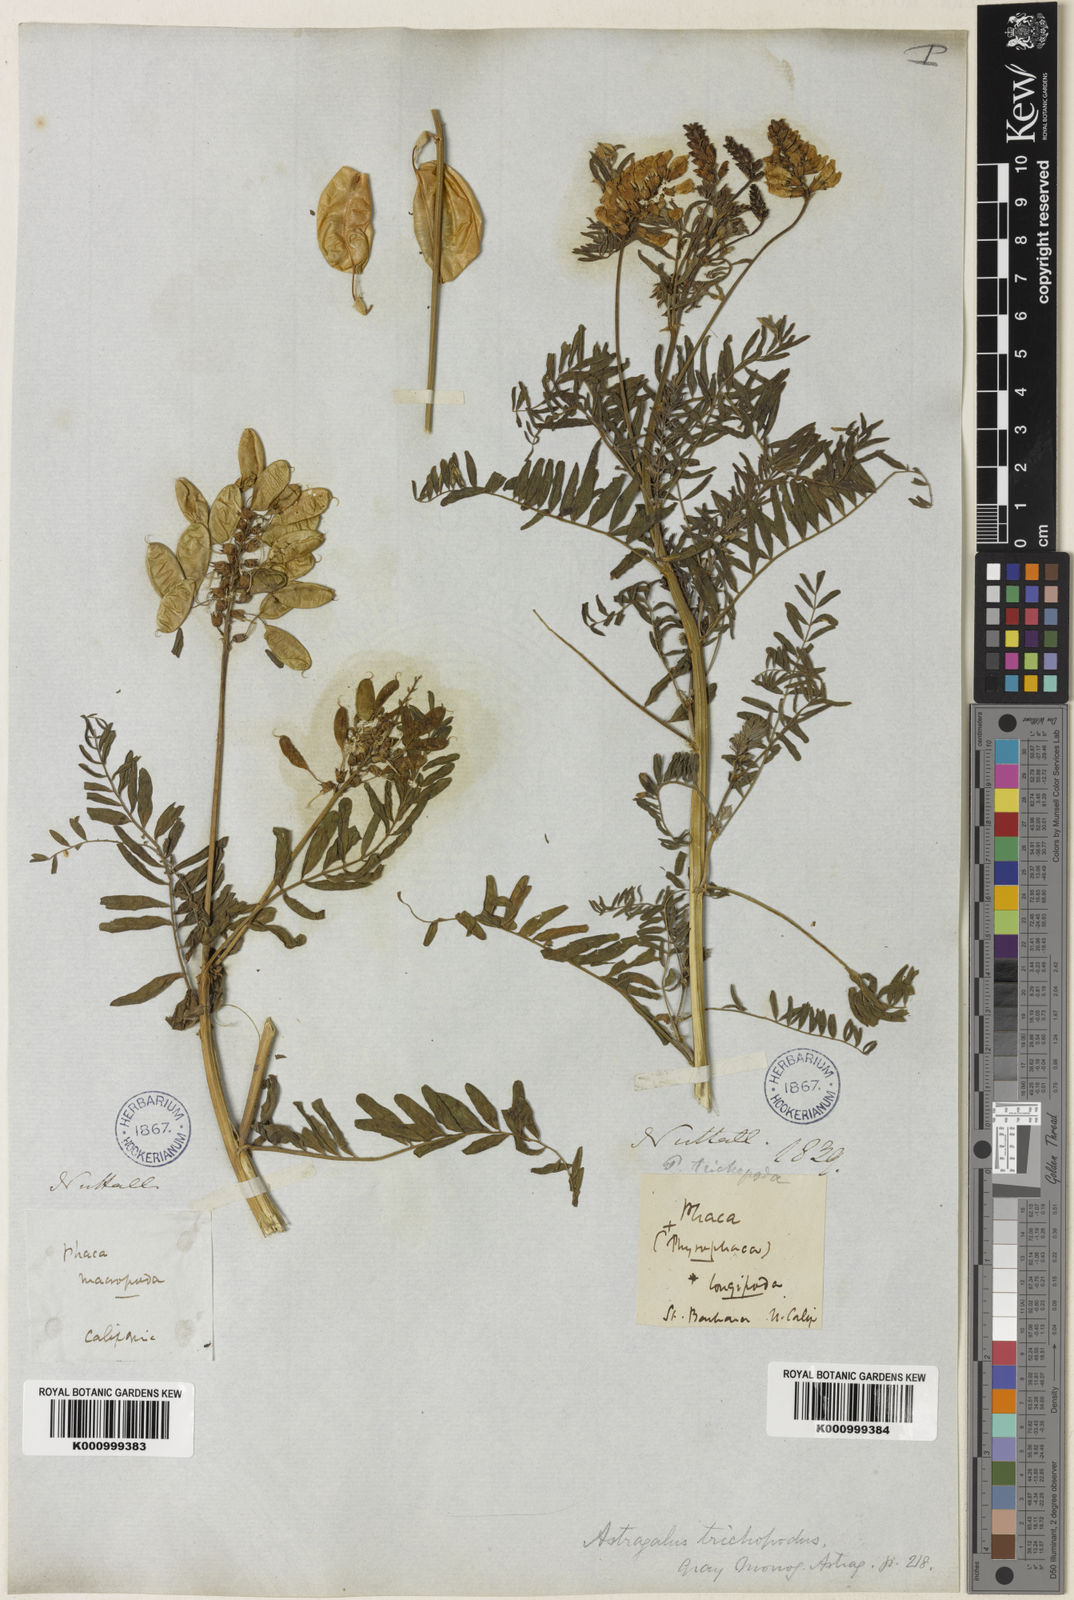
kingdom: Plantae
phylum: Tracheophyta
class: Magnoliopsida
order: Fabales
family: Fabaceae
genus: Astragalus
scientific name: Astragalus trichopodus
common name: Santa barbara milk-vetch
